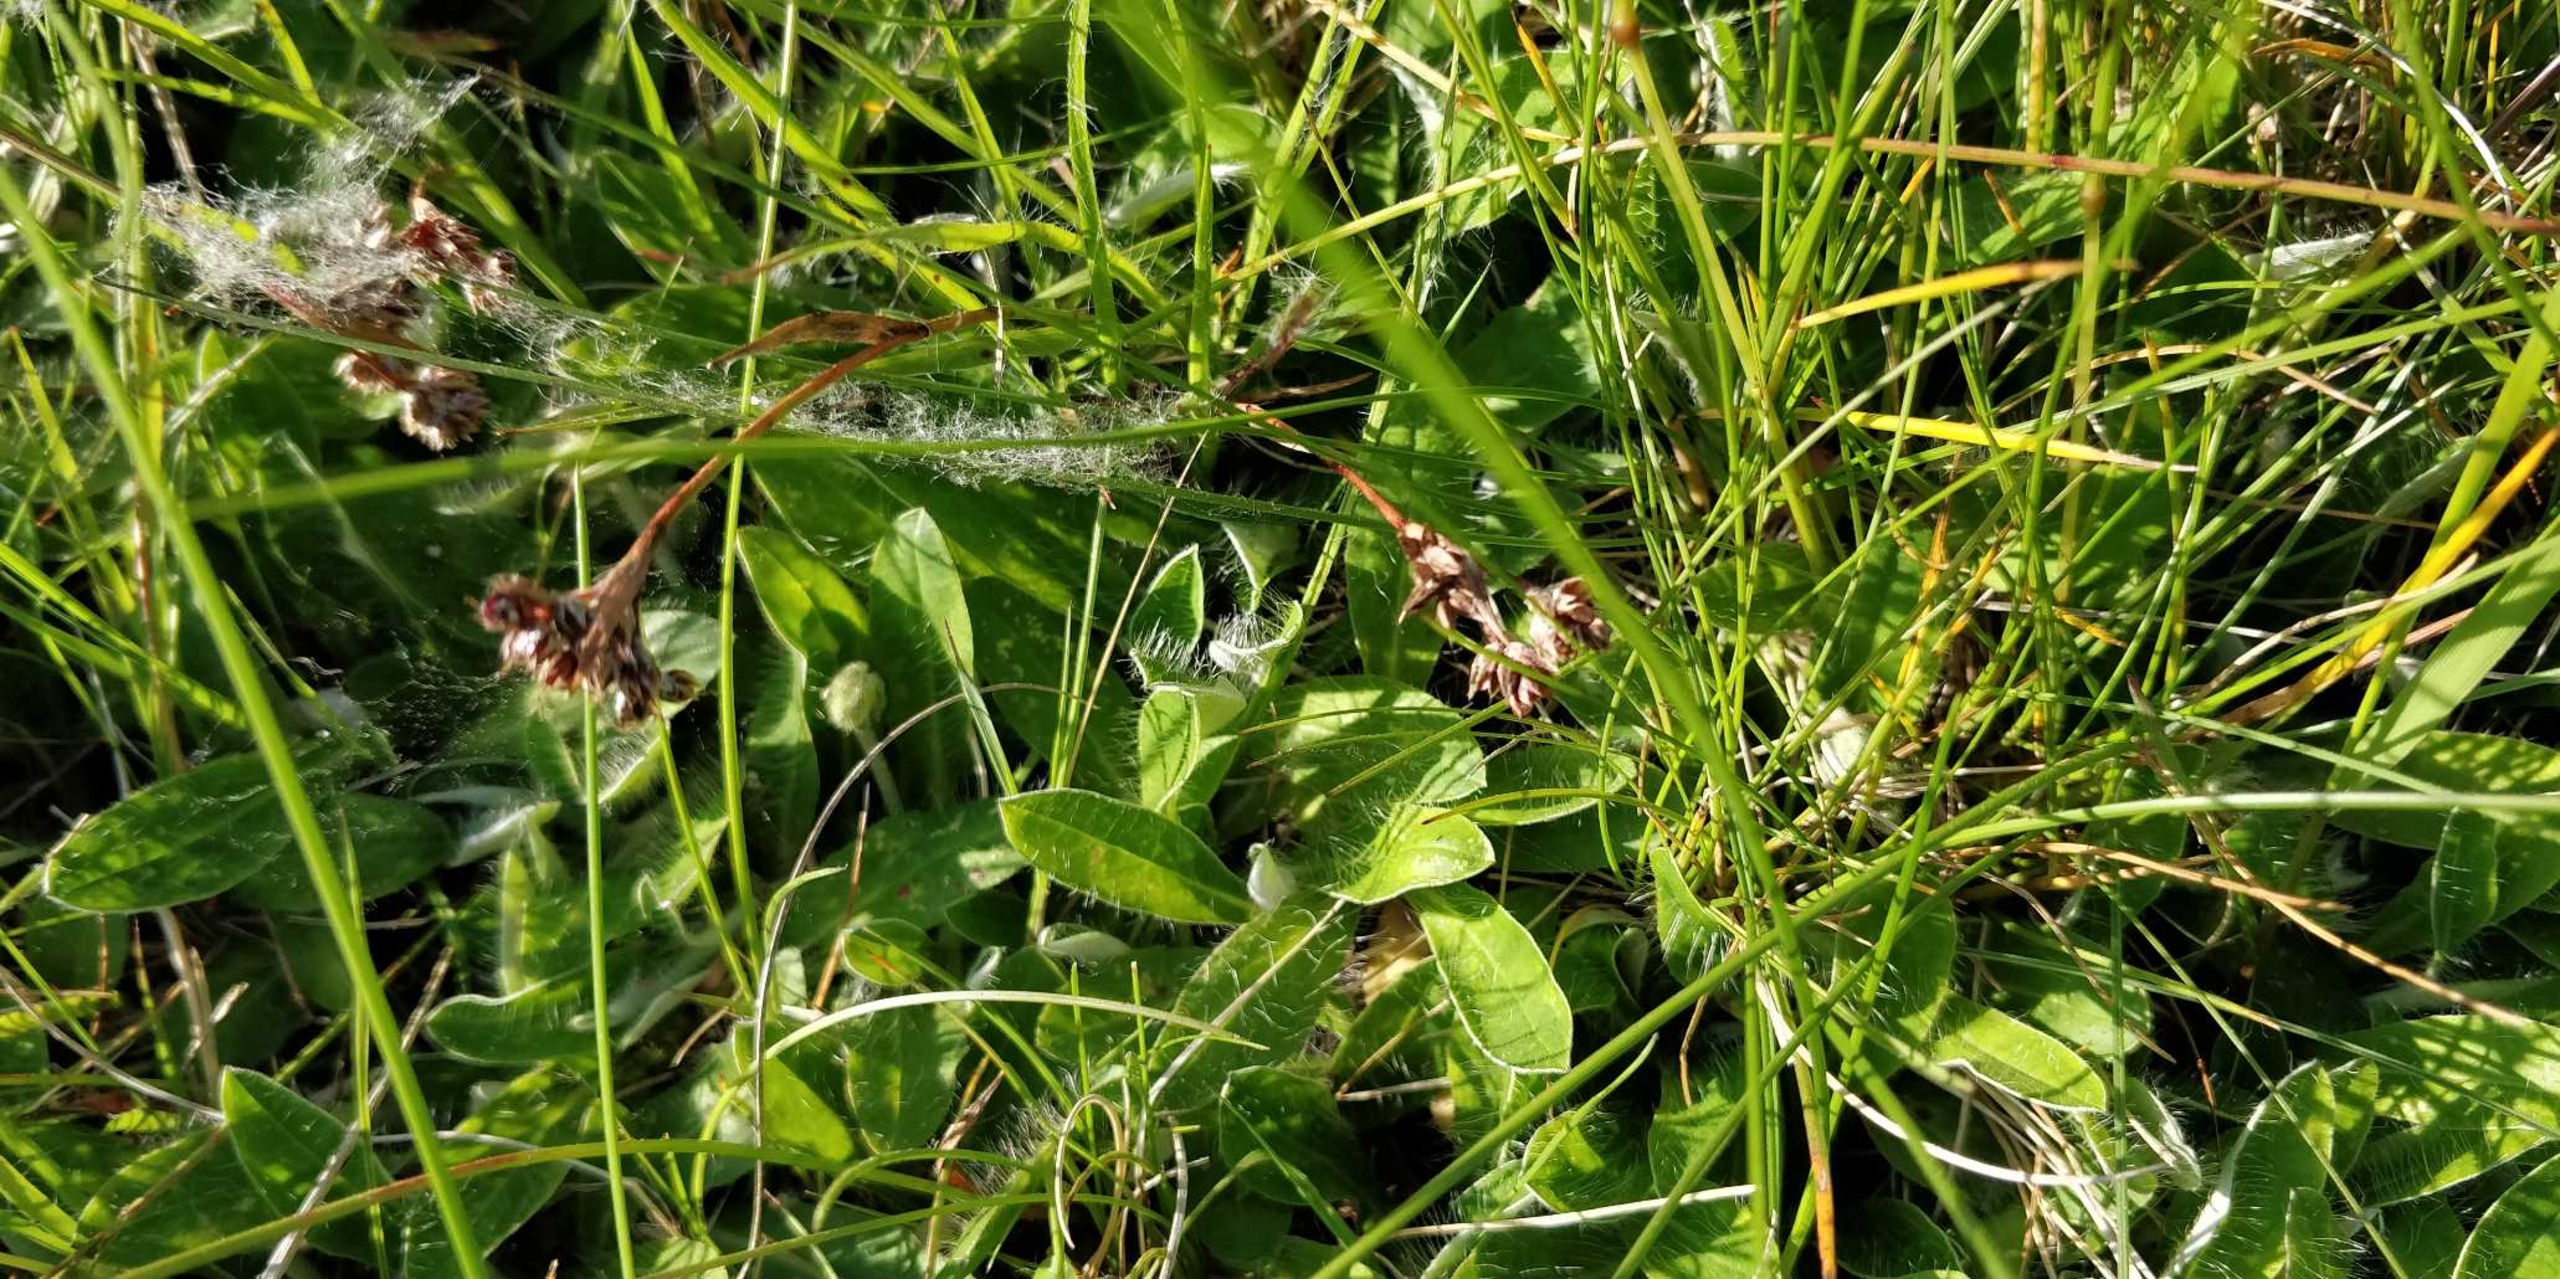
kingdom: Plantae
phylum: Tracheophyta
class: Liliopsida
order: Poales
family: Juncaceae
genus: Luzula
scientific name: Luzula campestris
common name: Mark-frytle
